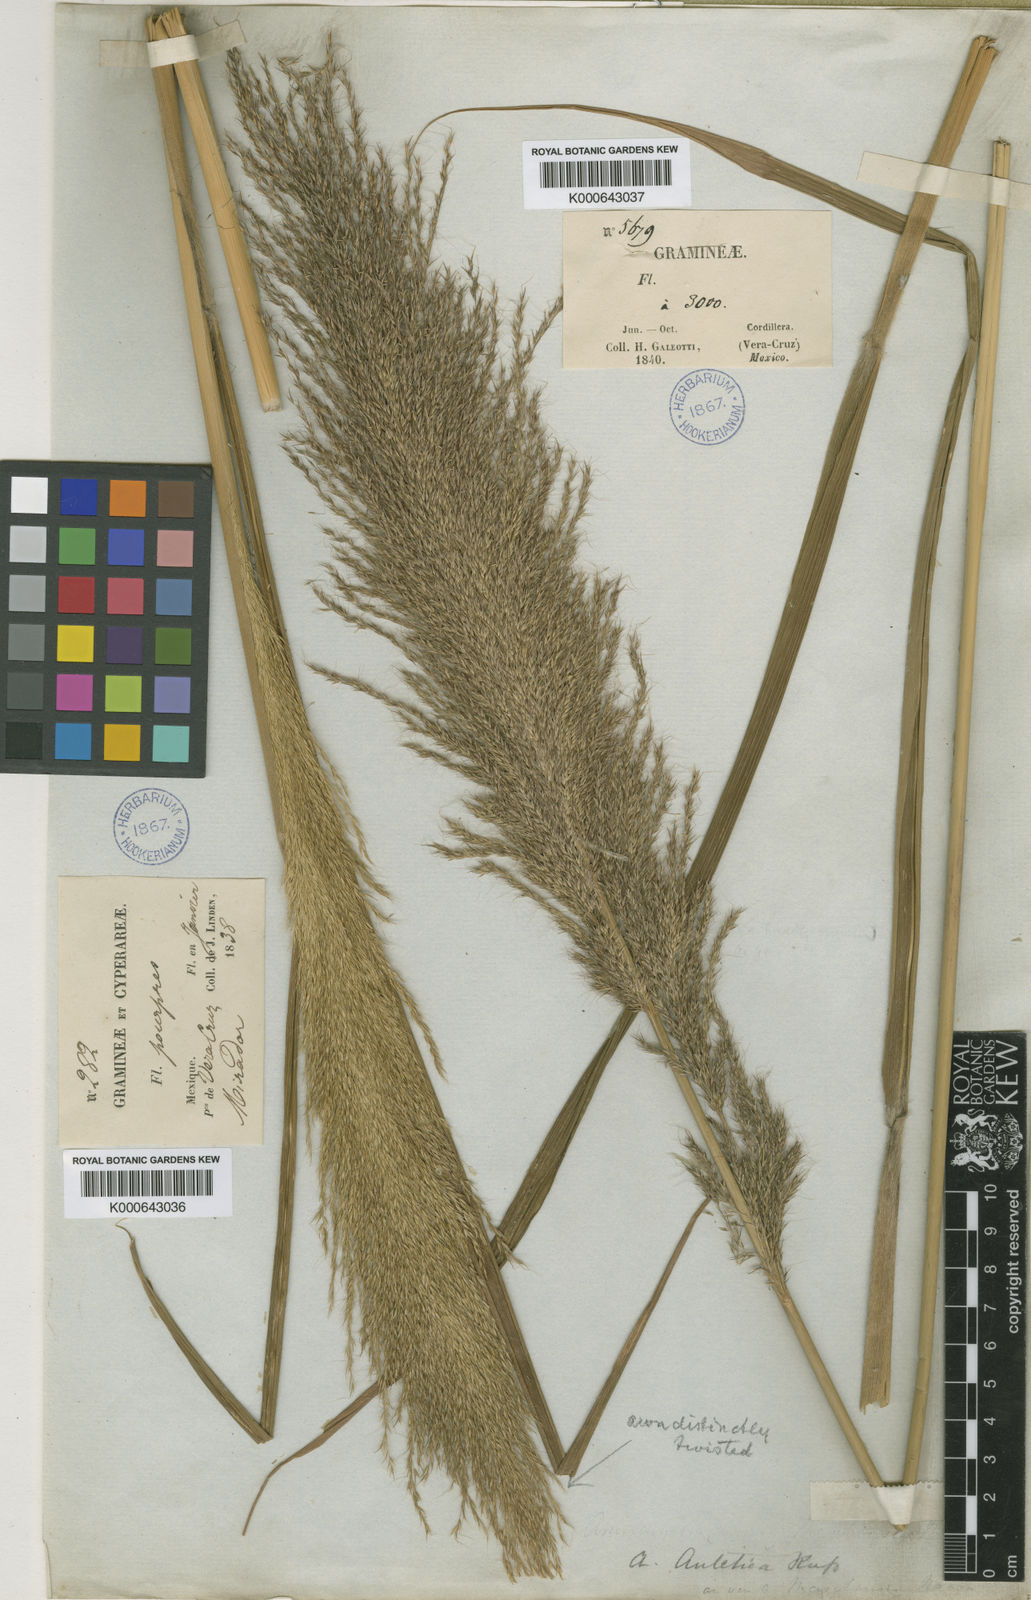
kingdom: Plantae
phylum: Tracheophyta
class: Liliopsida
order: Poales
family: Poaceae
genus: Arundinella
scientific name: Arundinella
